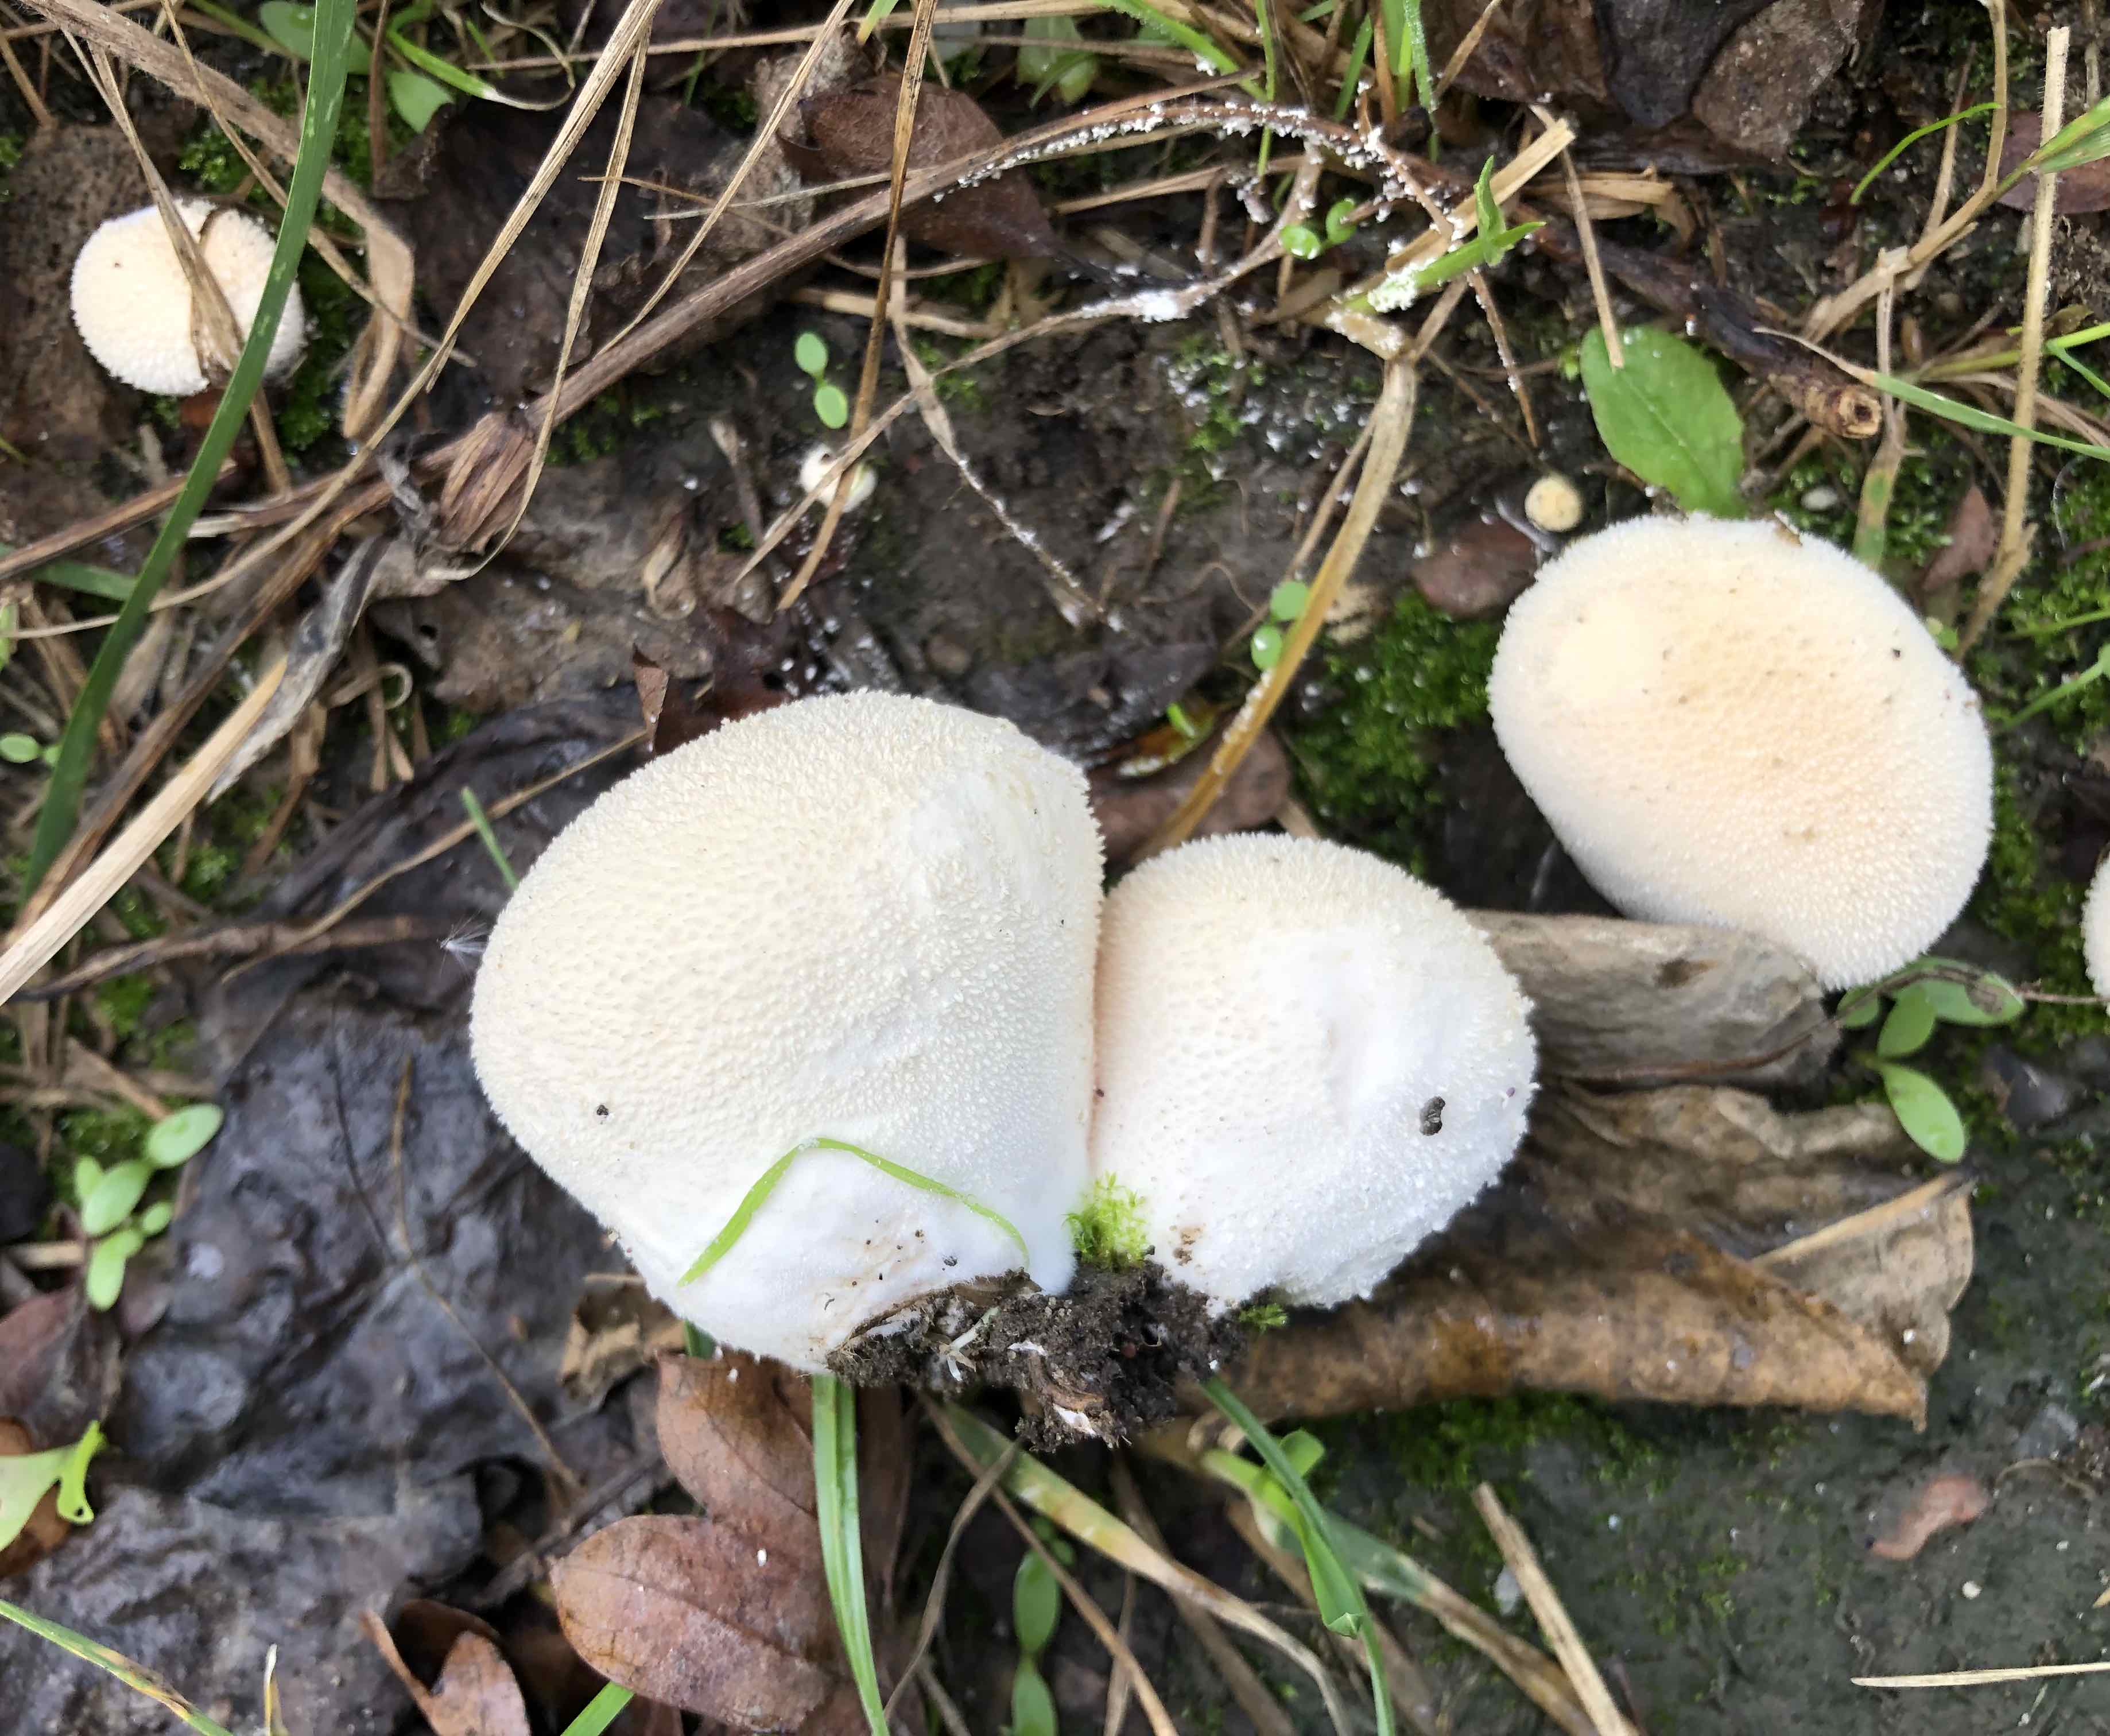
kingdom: Fungi
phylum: Basidiomycota
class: Agaricomycetes
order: Agaricales
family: Lycoperdaceae
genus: Lycoperdon
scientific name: Lycoperdon pratense
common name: flad støvbold
